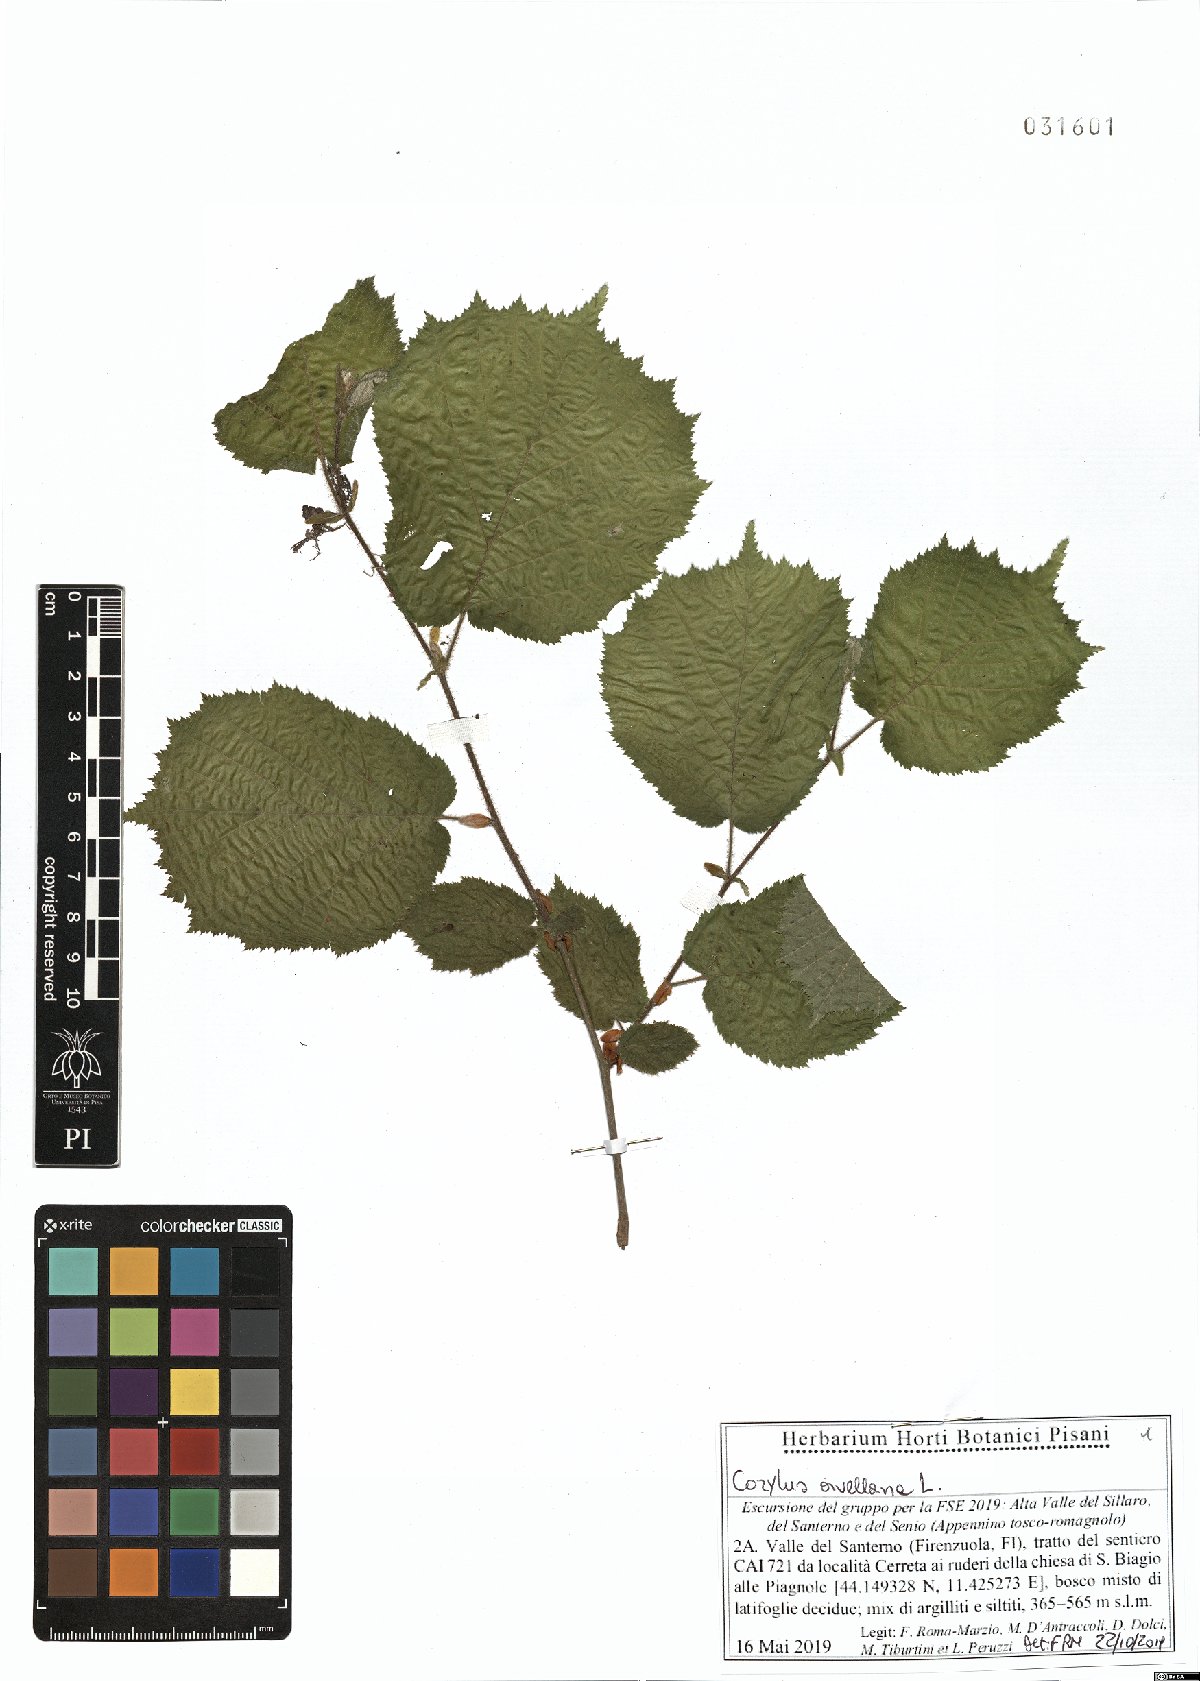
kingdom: Plantae
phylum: Tracheophyta
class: Magnoliopsida
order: Fagales
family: Betulaceae
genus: Corylus
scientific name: Corylus avellana
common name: European hazel
